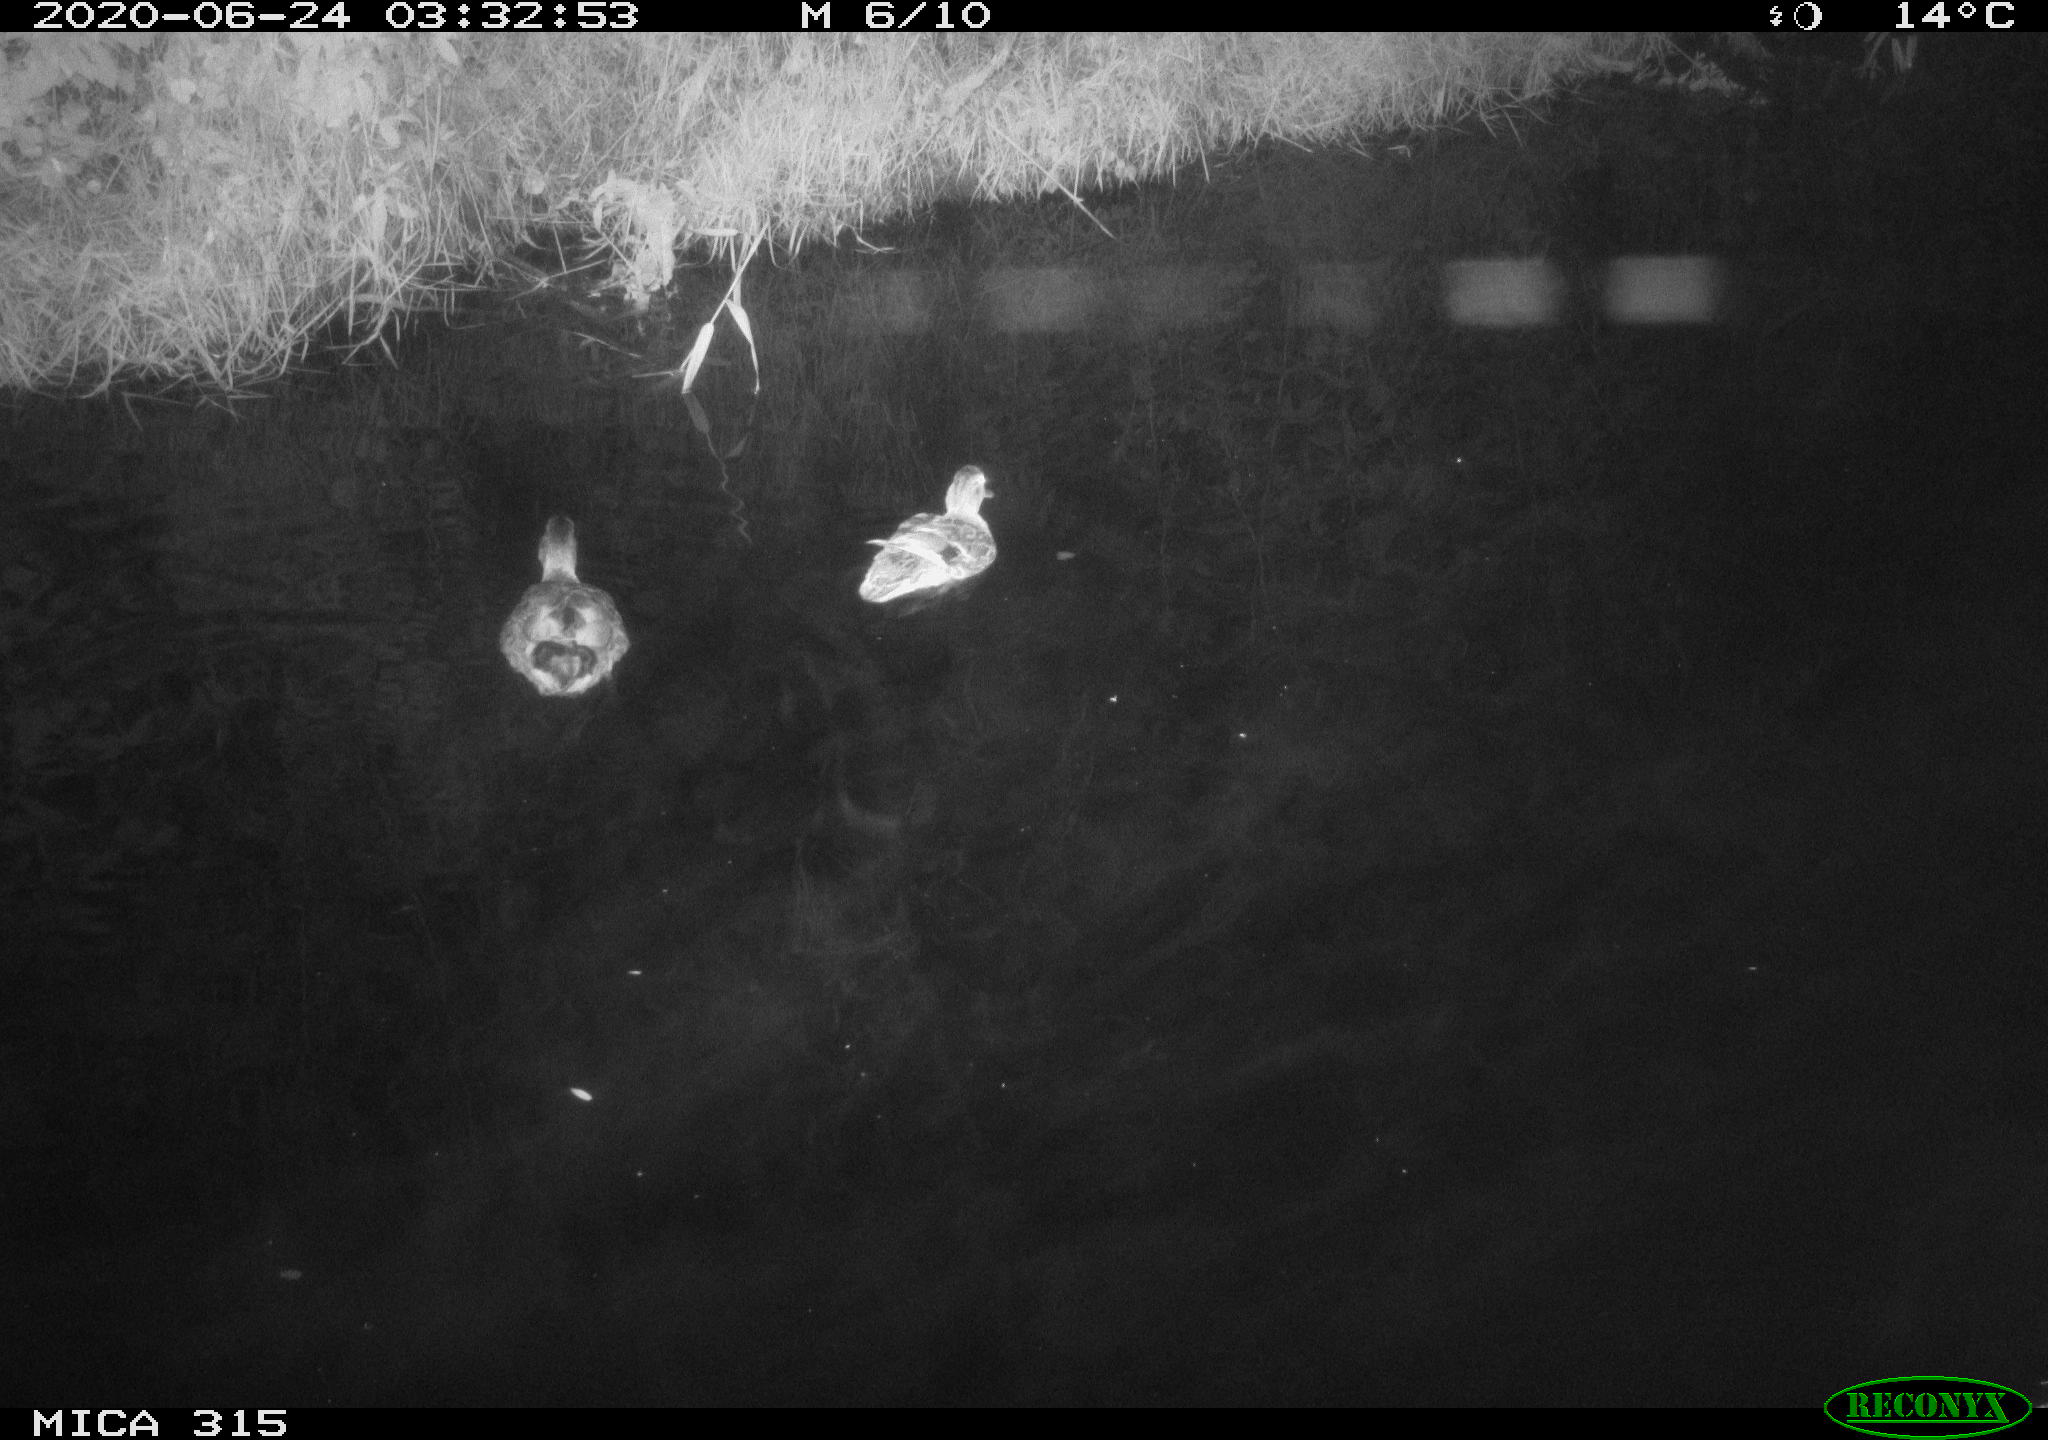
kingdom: Animalia
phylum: Chordata
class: Aves
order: Anseriformes
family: Anatidae
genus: Anas
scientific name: Anas platyrhynchos
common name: Mallard
